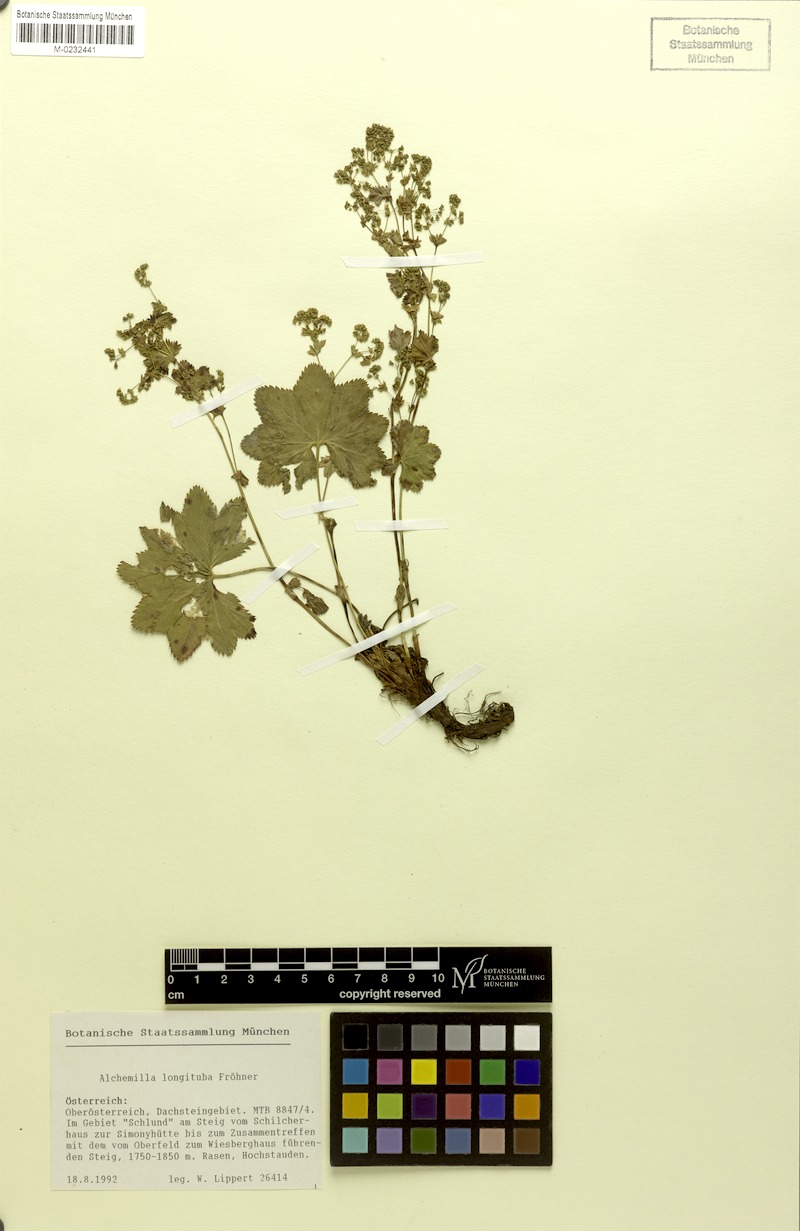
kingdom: Plantae
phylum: Tracheophyta
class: Magnoliopsida
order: Rosales
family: Rosaceae
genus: Alchemilla
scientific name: Alchemilla longituba
